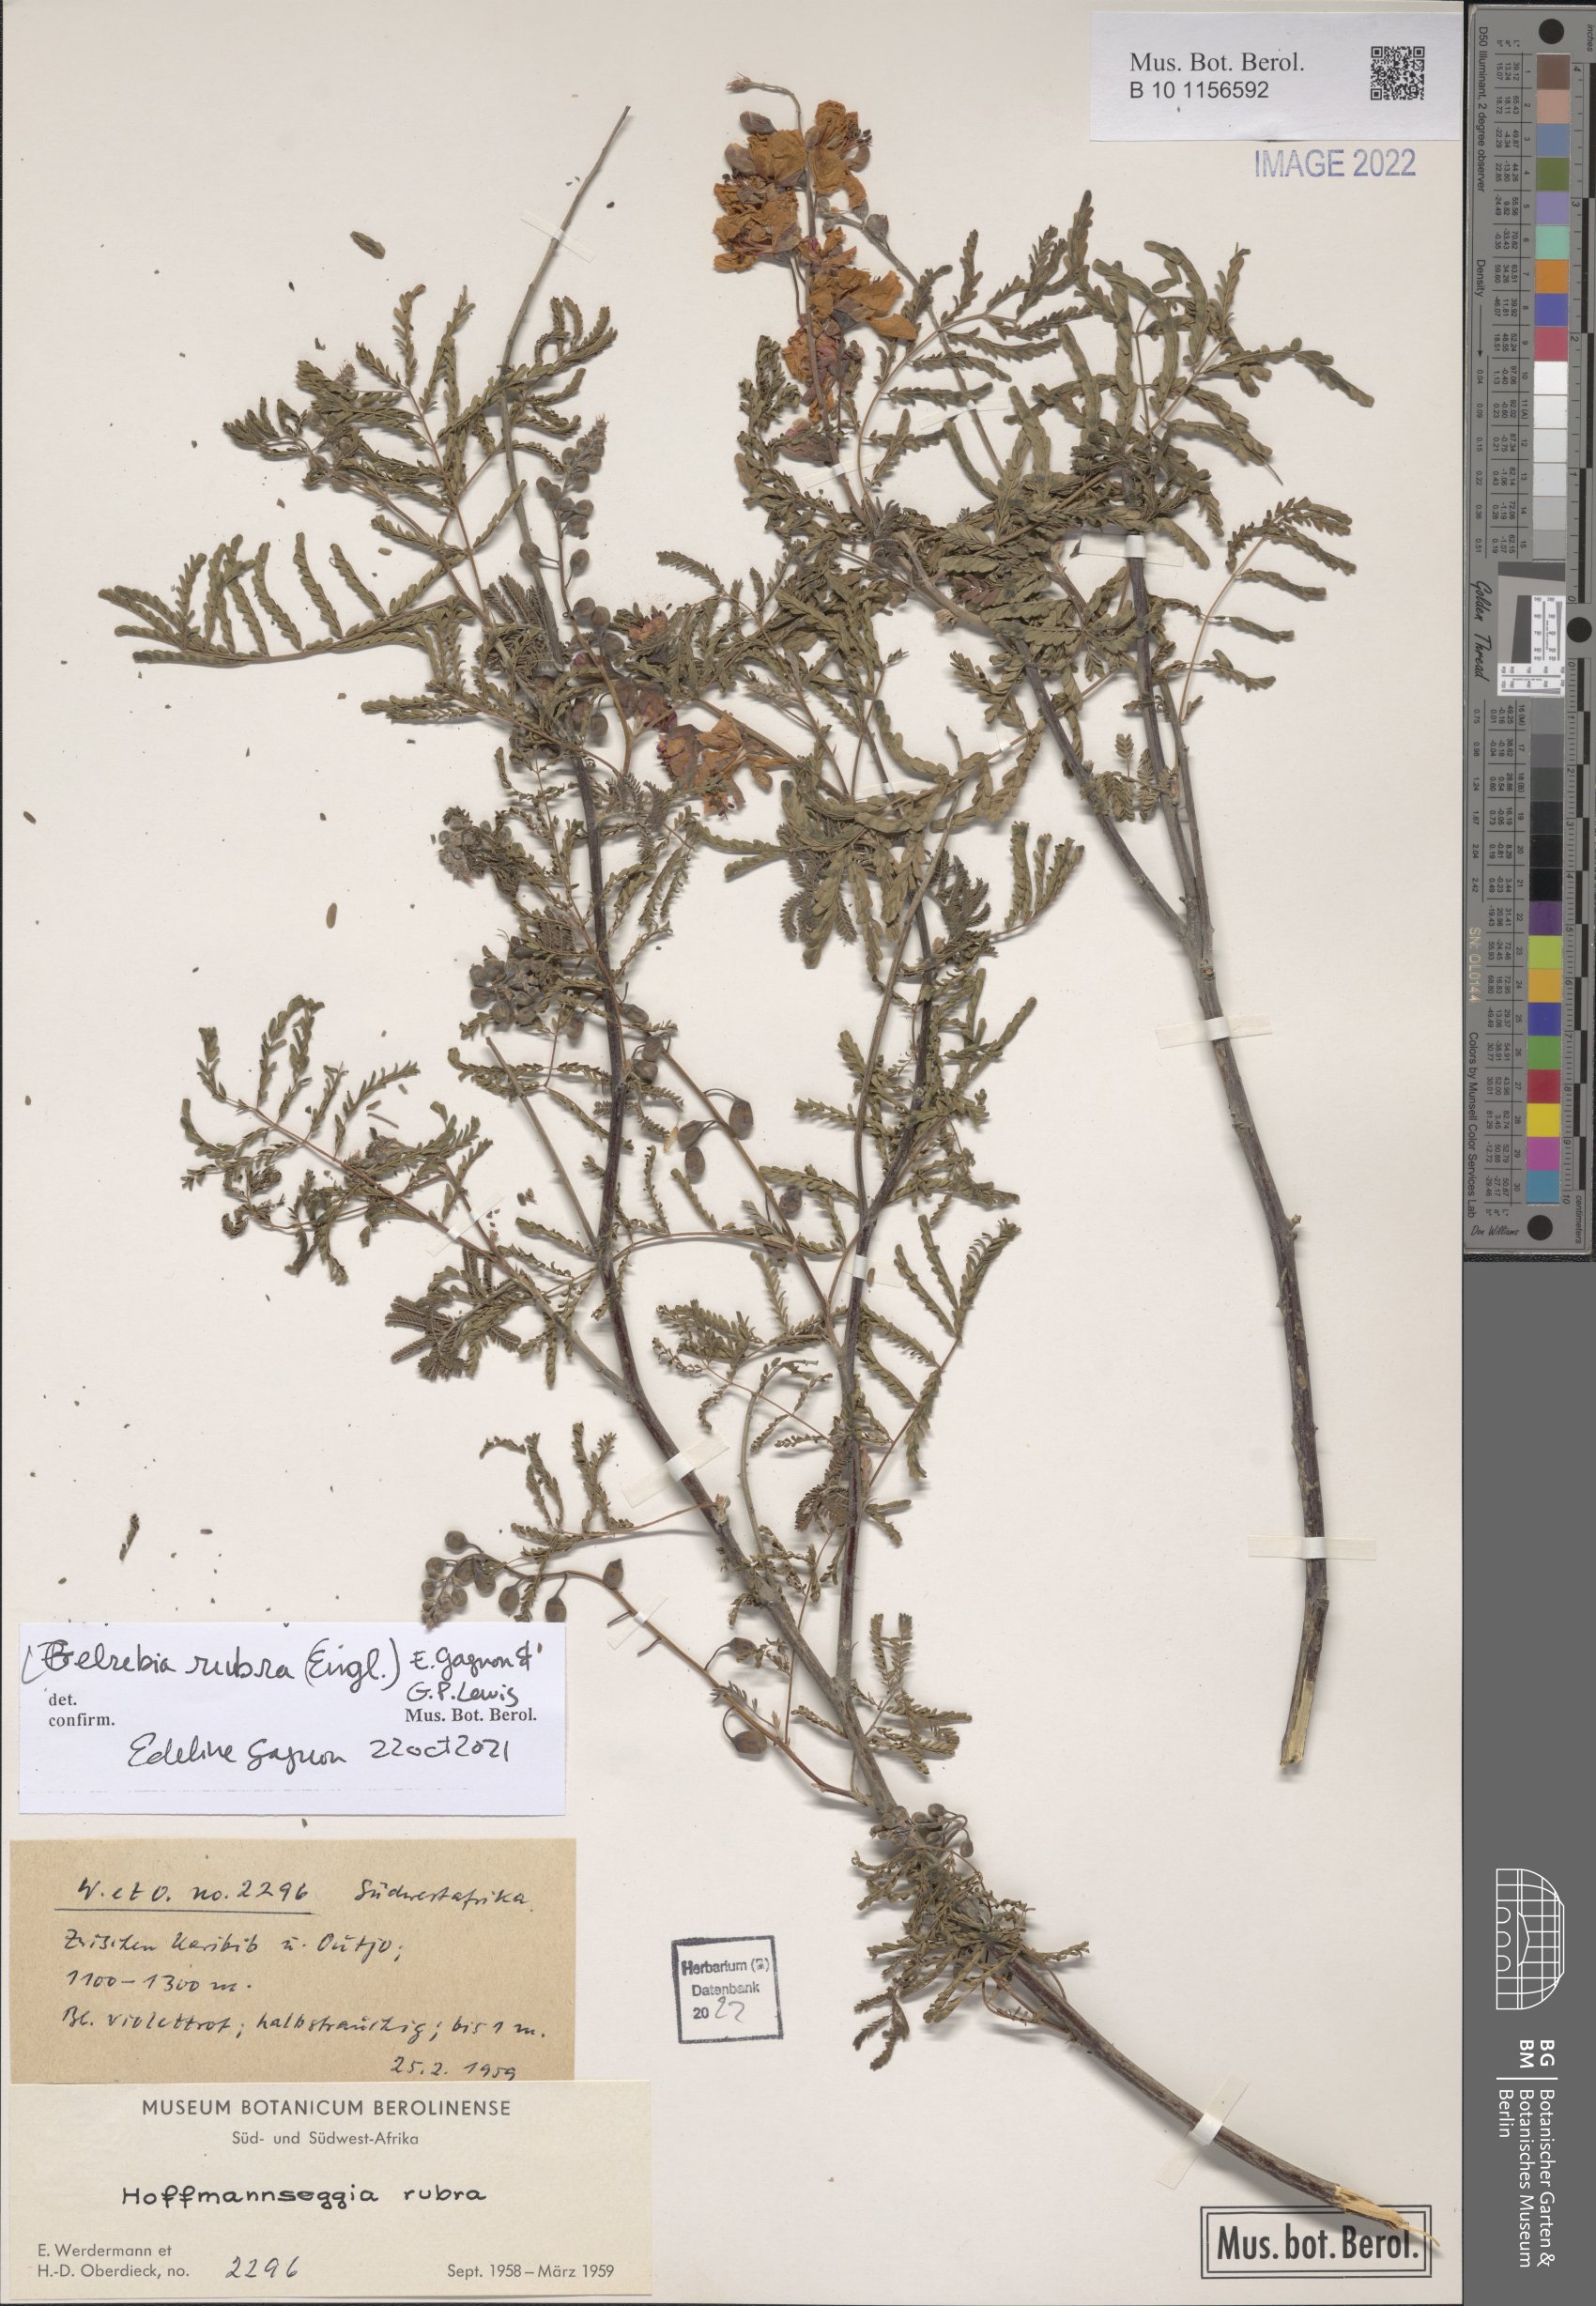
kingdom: Plantae
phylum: Tracheophyta
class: Magnoliopsida
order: Fabales
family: Fabaceae
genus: Gelrebia
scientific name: Gelrebia rubra
